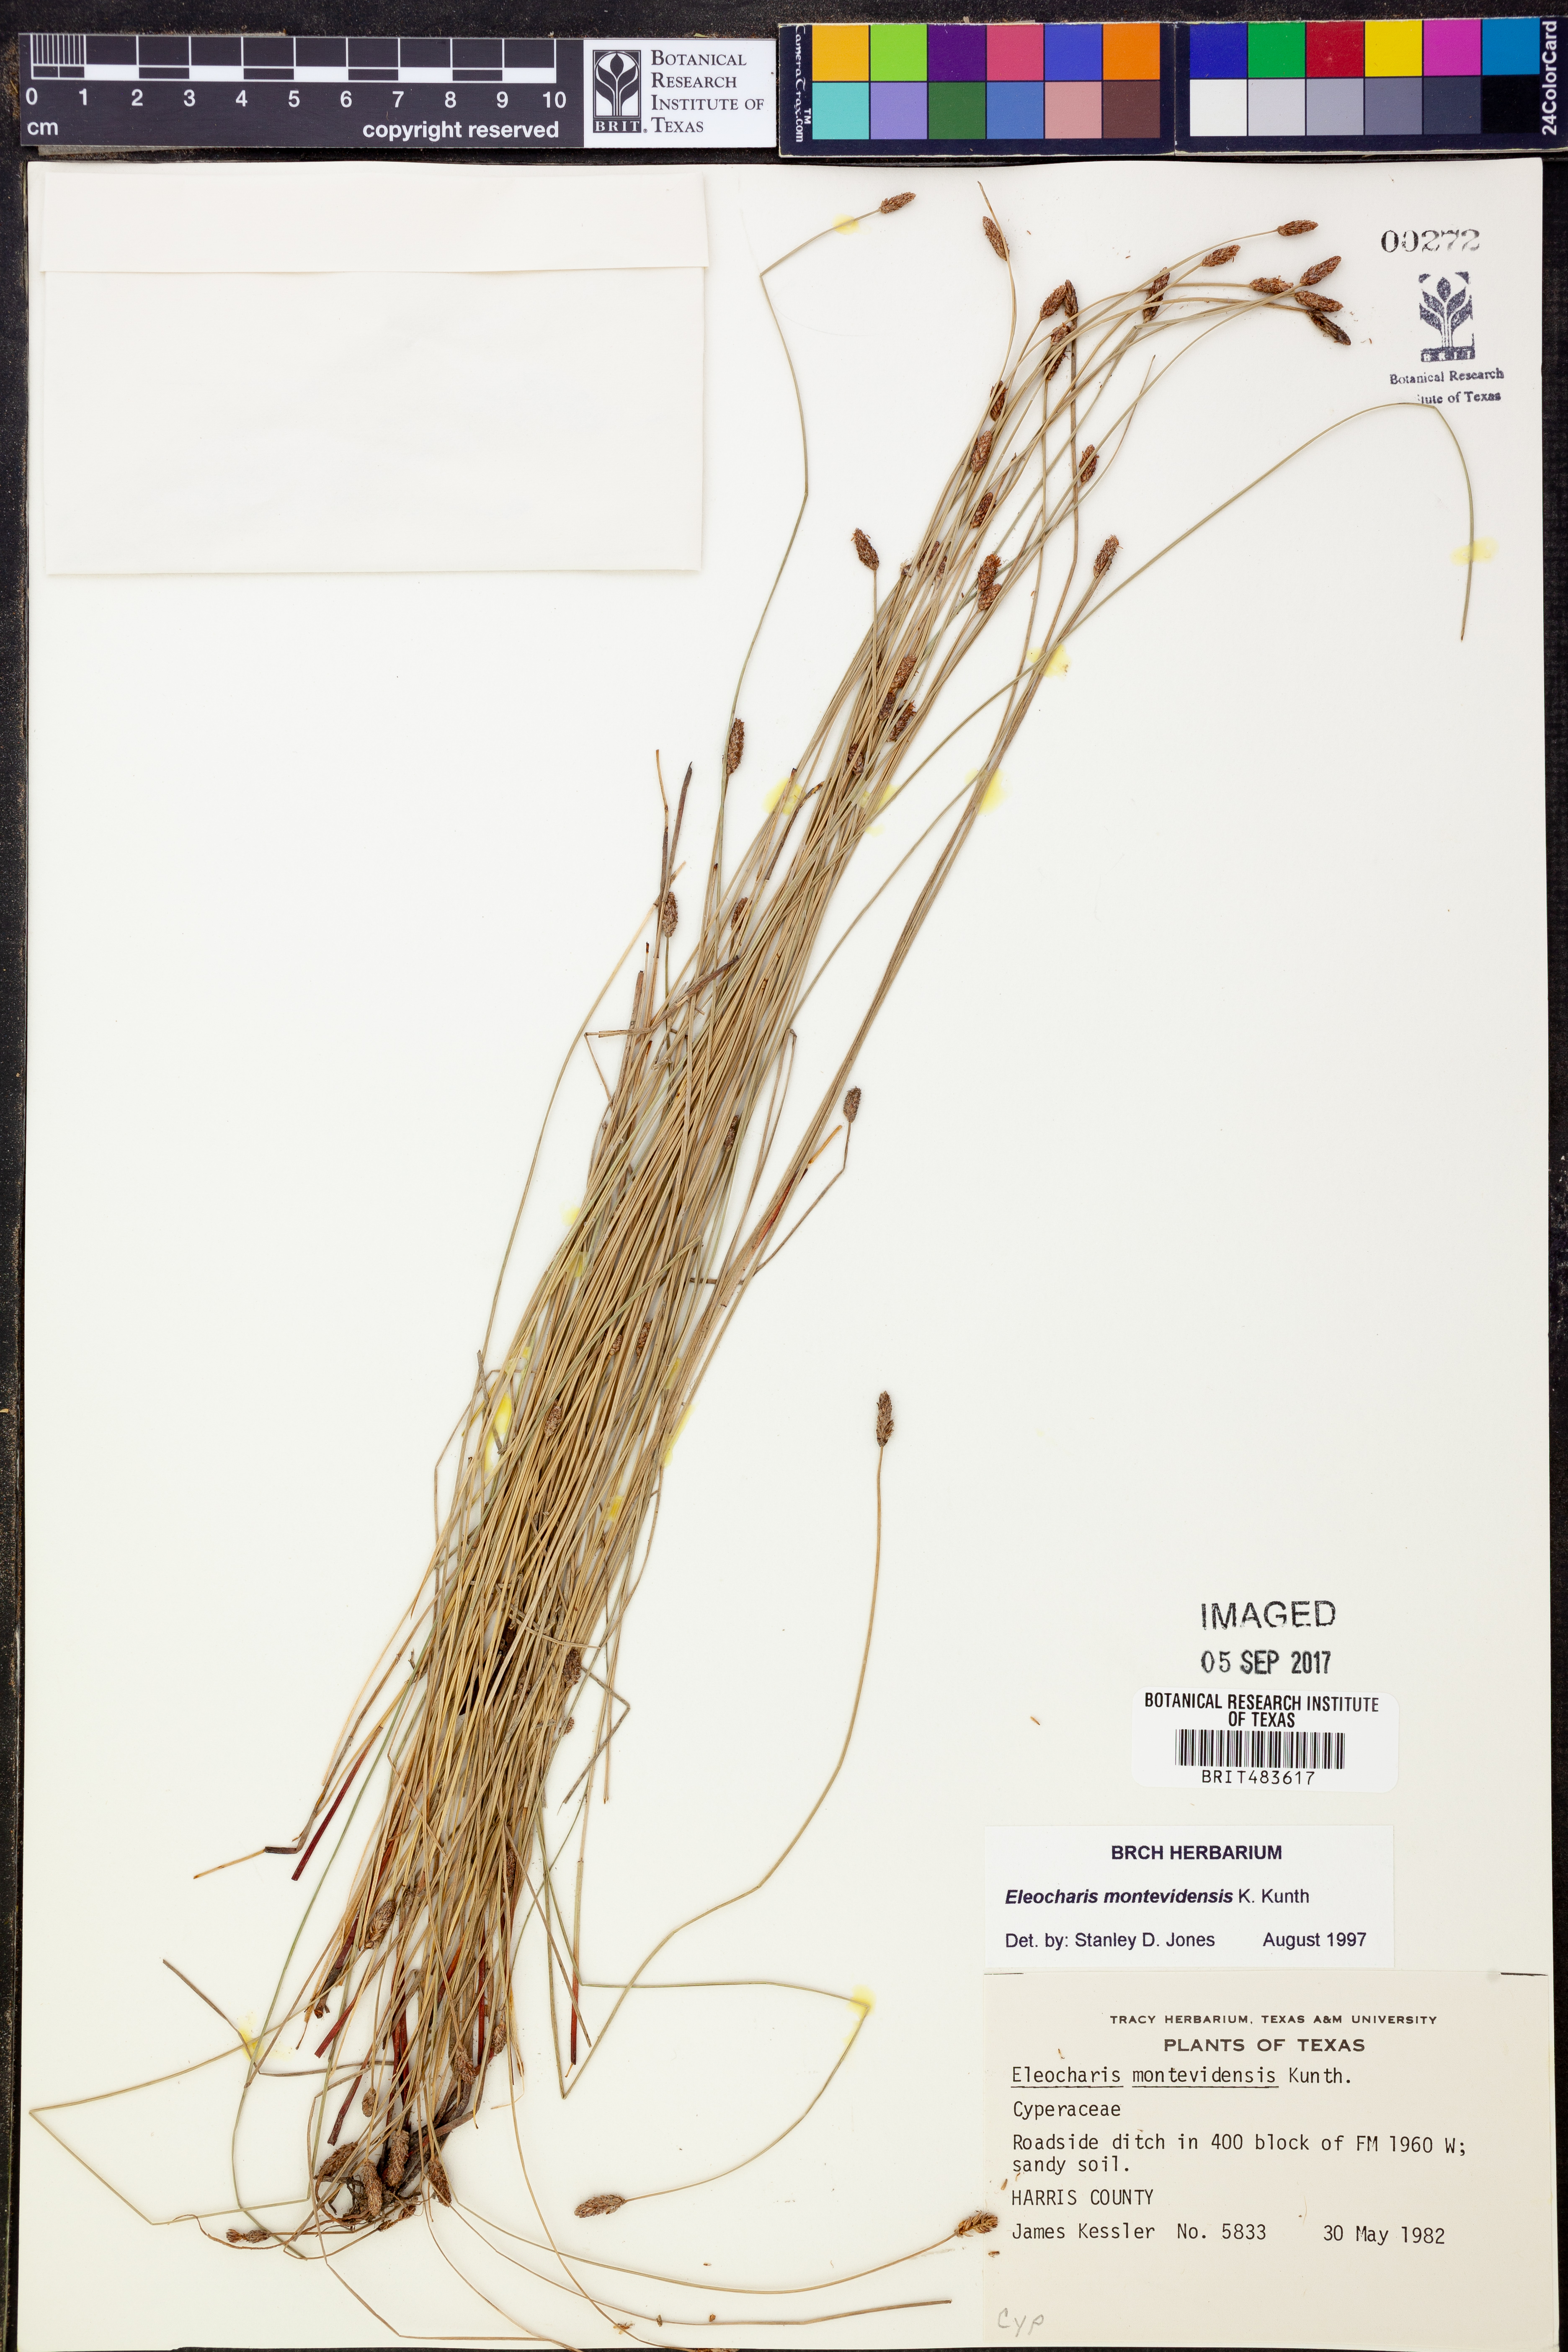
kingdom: Plantae
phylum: Tracheophyta
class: Liliopsida
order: Poales
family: Cyperaceae
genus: Eleocharis
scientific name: Eleocharis montevidensis
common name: Sand spike-rush
